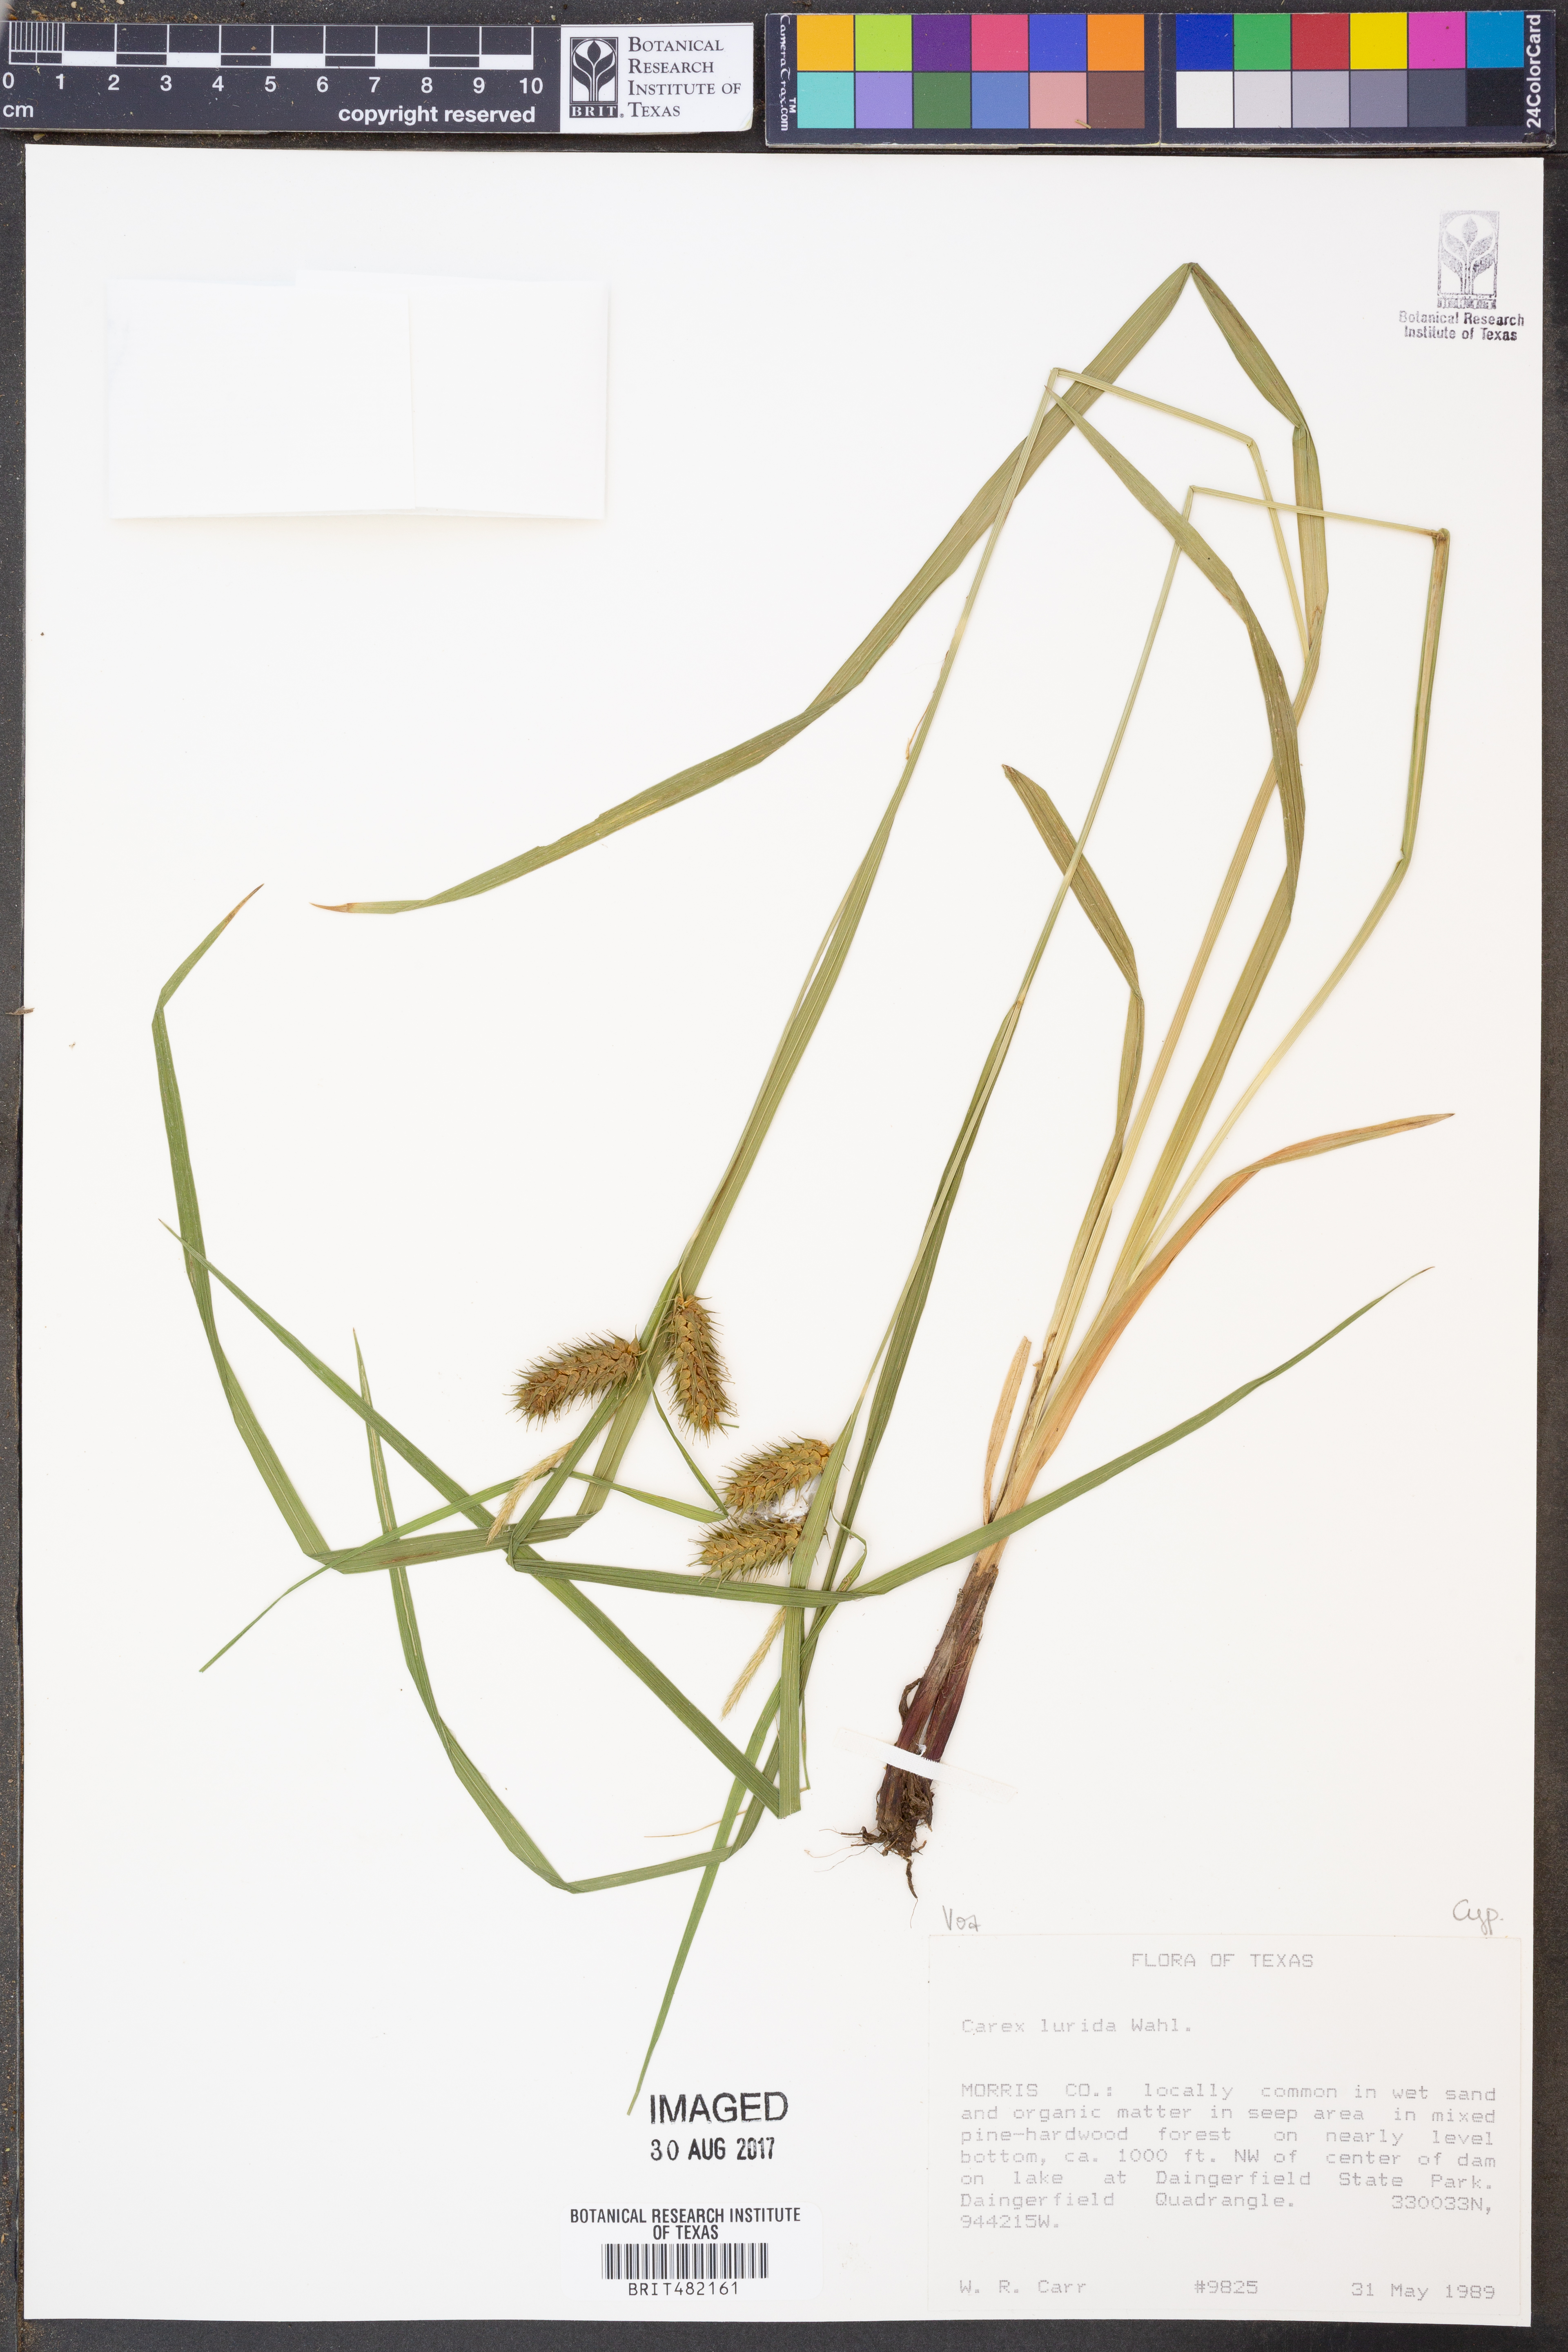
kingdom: Plantae
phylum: Tracheophyta
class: Liliopsida
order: Poales
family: Cyperaceae
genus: Carex
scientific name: Carex lurida
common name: Sallow sedge
